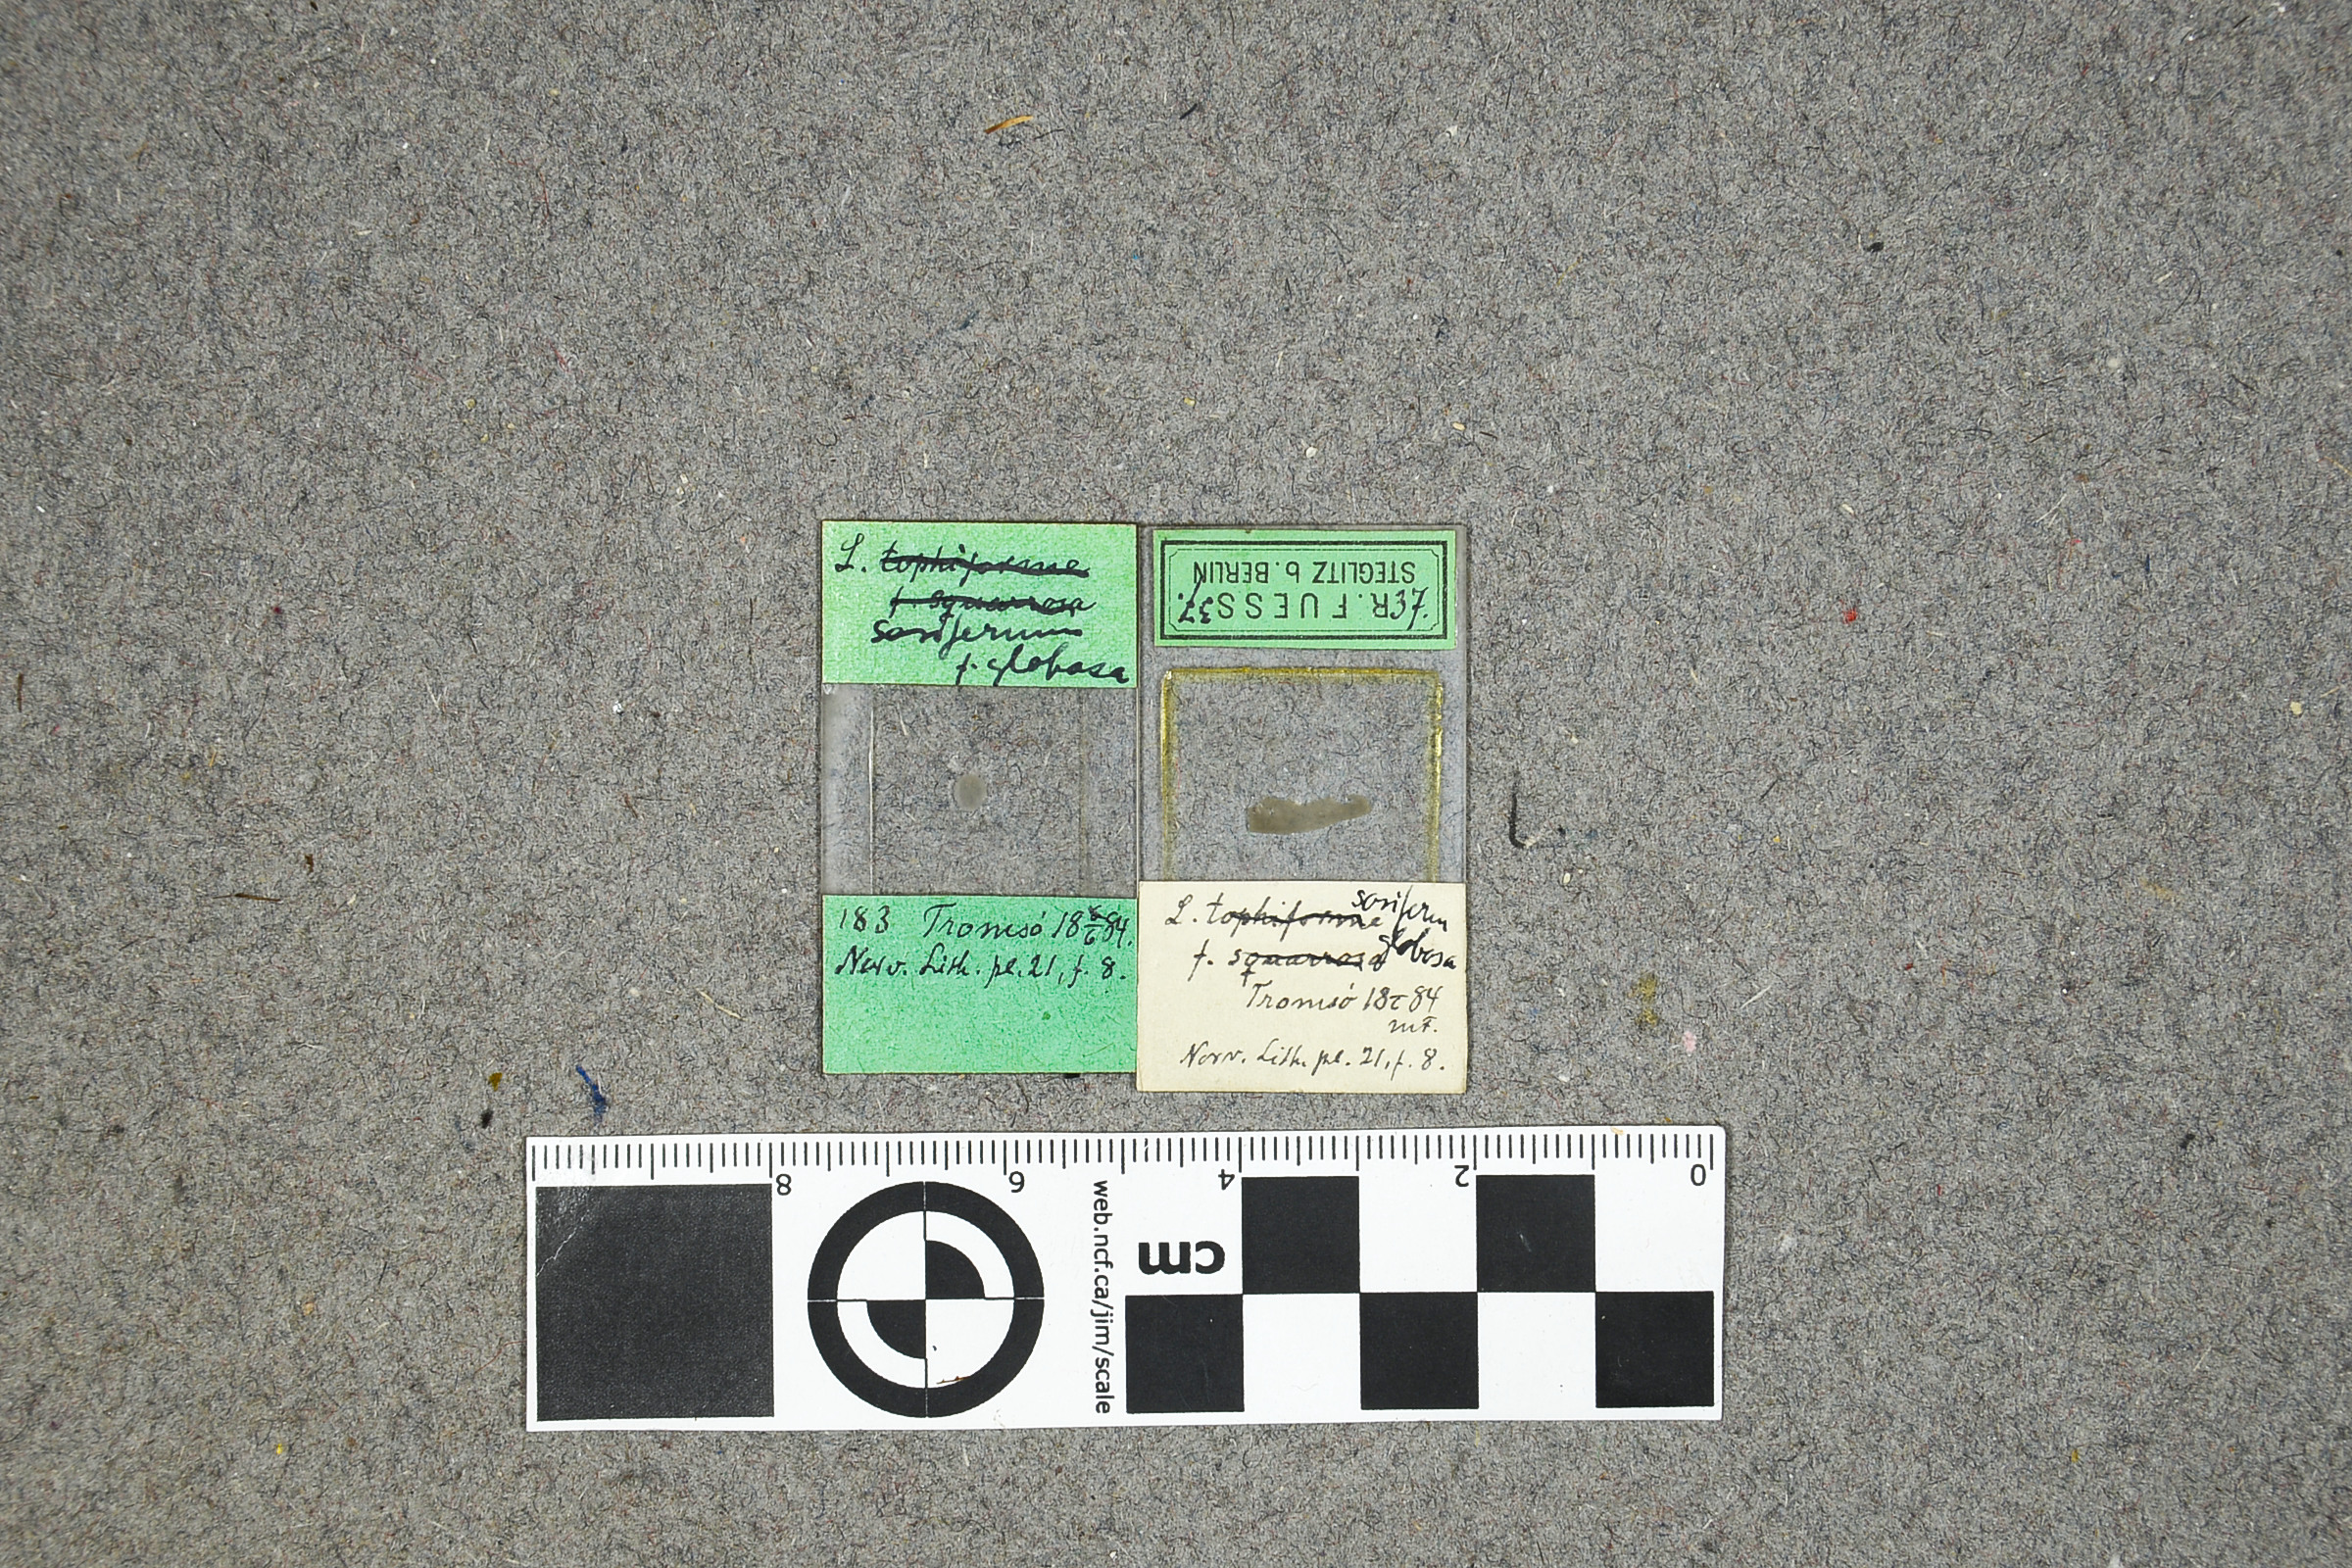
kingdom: Plantae
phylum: Rhodophyta
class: Florideophyceae
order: Corallinales
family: Hapalidiaceae
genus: Lithothamnion
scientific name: Lithothamnion soriferum
